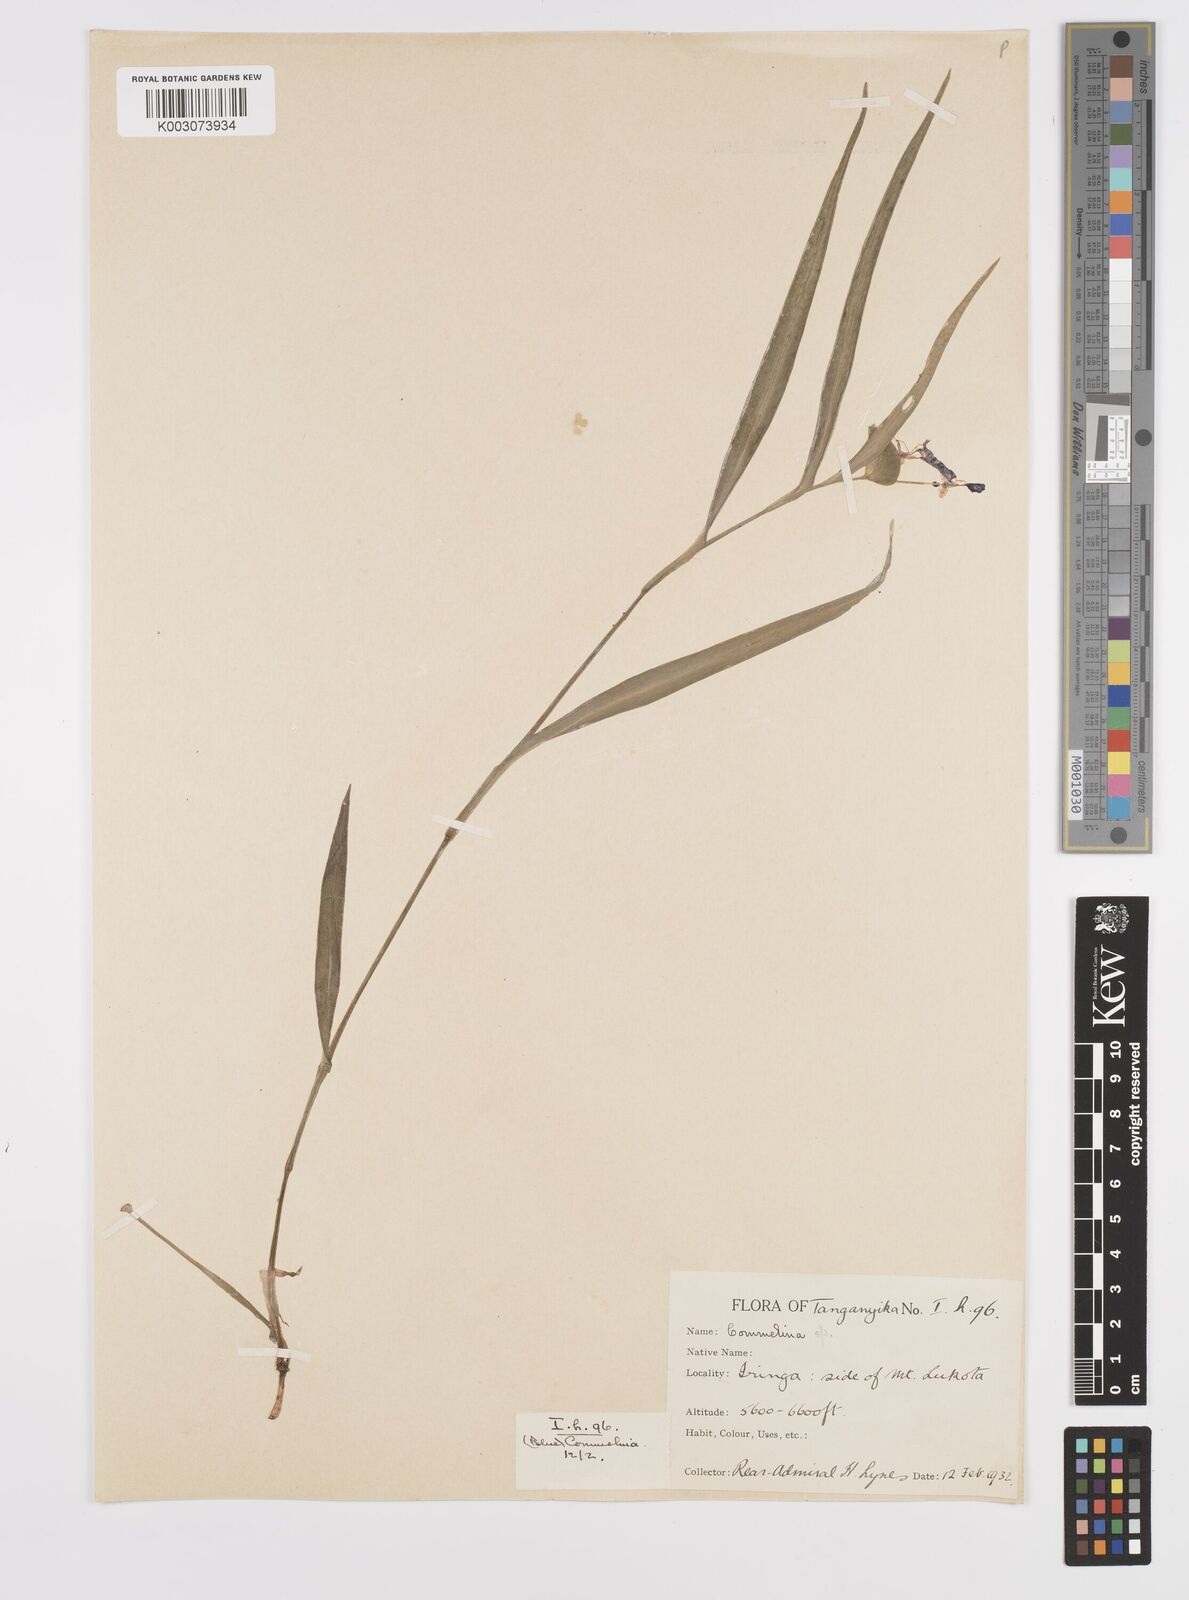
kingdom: Plantae
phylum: Tracheophyta
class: Liliopsida
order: Commelinales
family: Commelinaceae
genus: Commelina
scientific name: Commelina eckloniana
